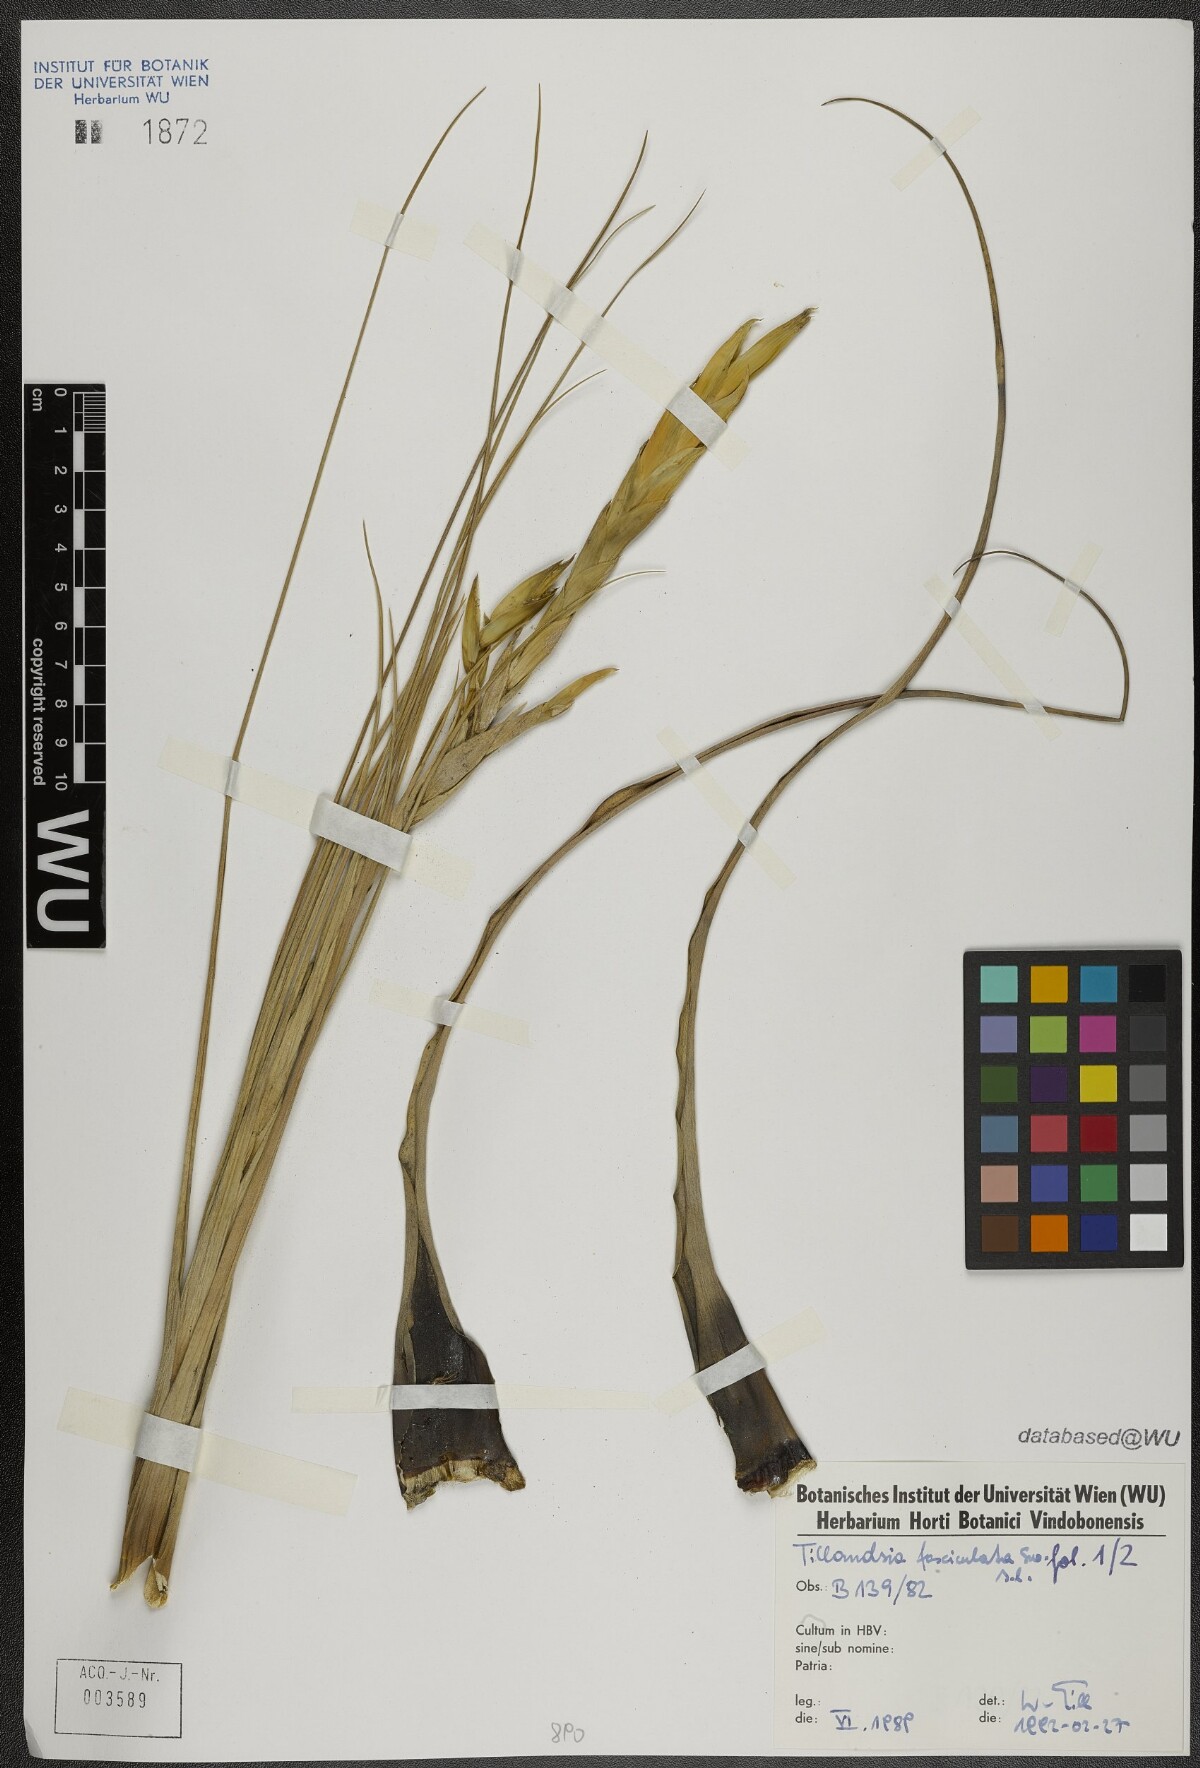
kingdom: Plantae
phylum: Tracheophyta
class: Liliopsida
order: Poales
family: Bromeliaceae
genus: Tillandsia
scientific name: Tillandsia fasciculata
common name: Giant airplant
